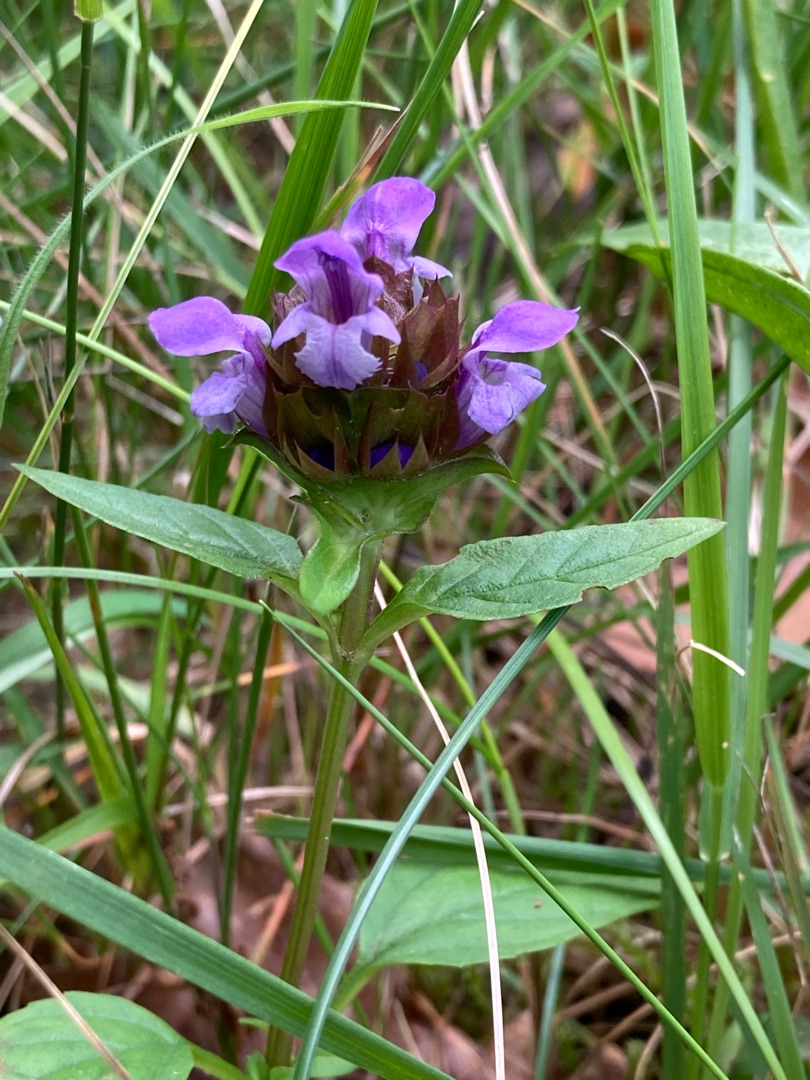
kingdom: Plantae
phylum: Tracheophyta
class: Magnoliopsida
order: Lamiales
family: Lamiaceae
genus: Prunella
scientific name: Prunella vulgaris
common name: Almindelig brunelle
